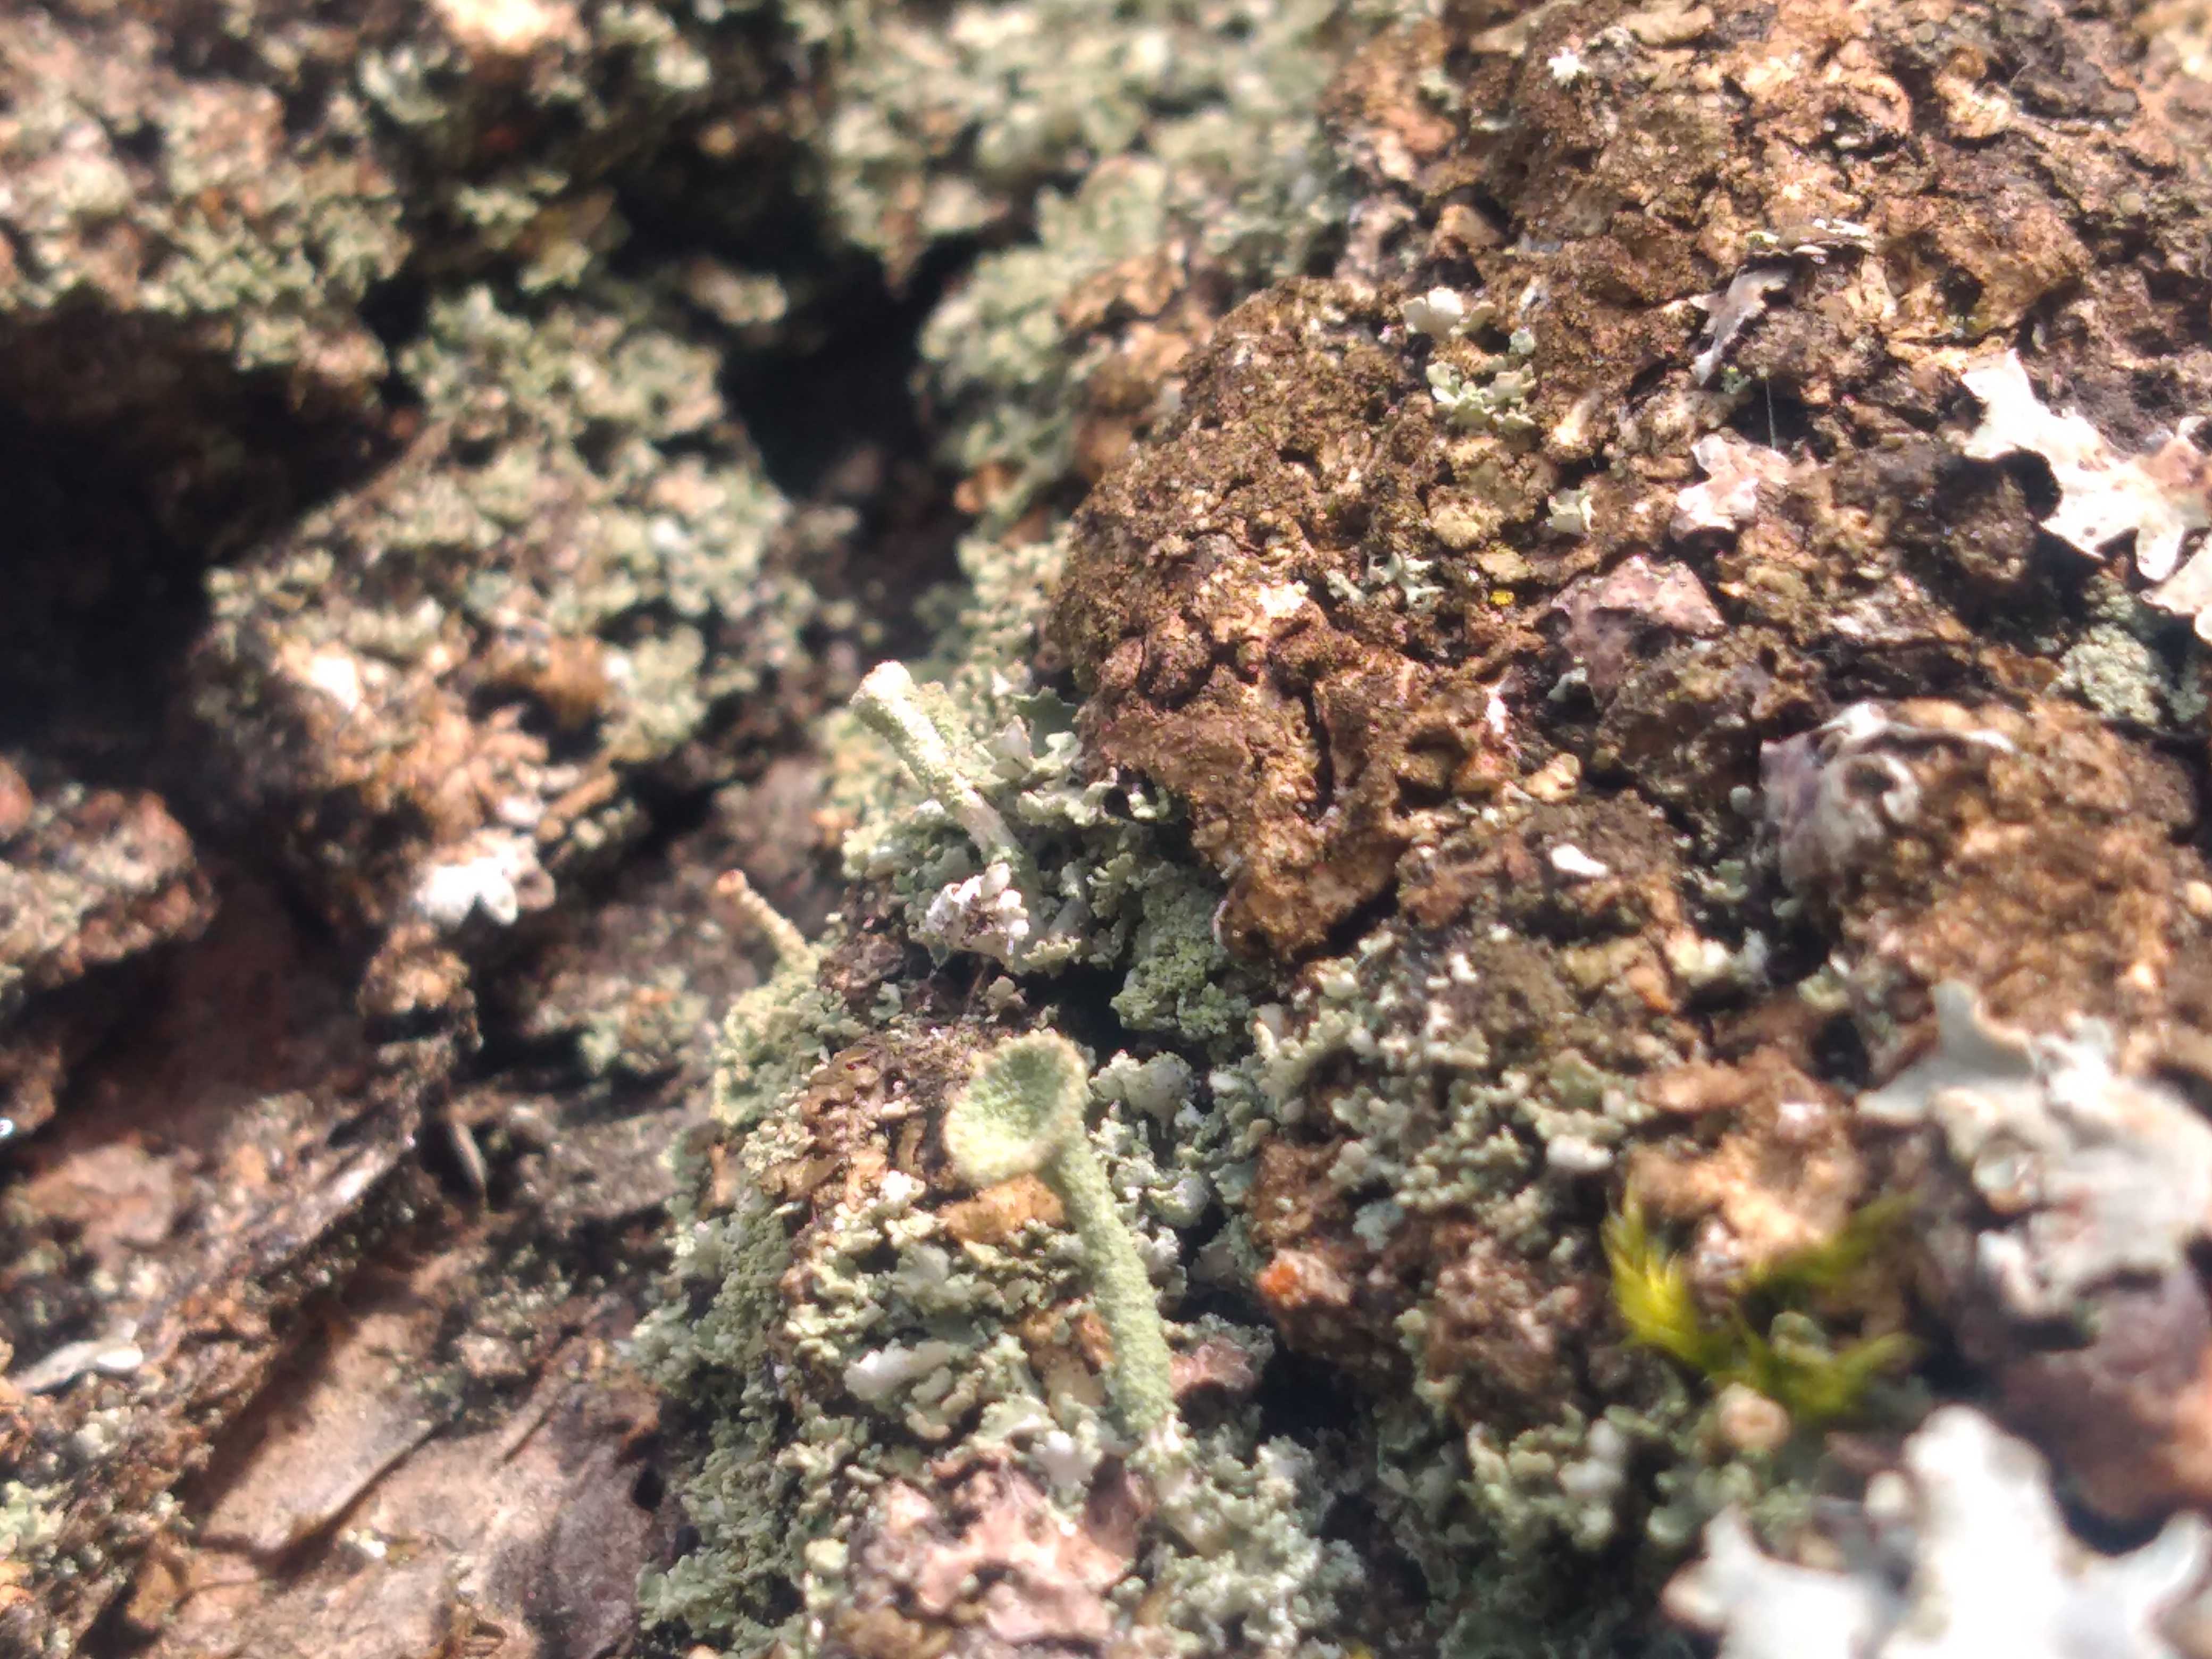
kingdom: Fungi
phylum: Ascomycota
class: Lecanoromycetes
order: Lecanorales
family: Cladoniaceae
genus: Cladonia
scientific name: Cladonia
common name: brungrøn bægerlav
